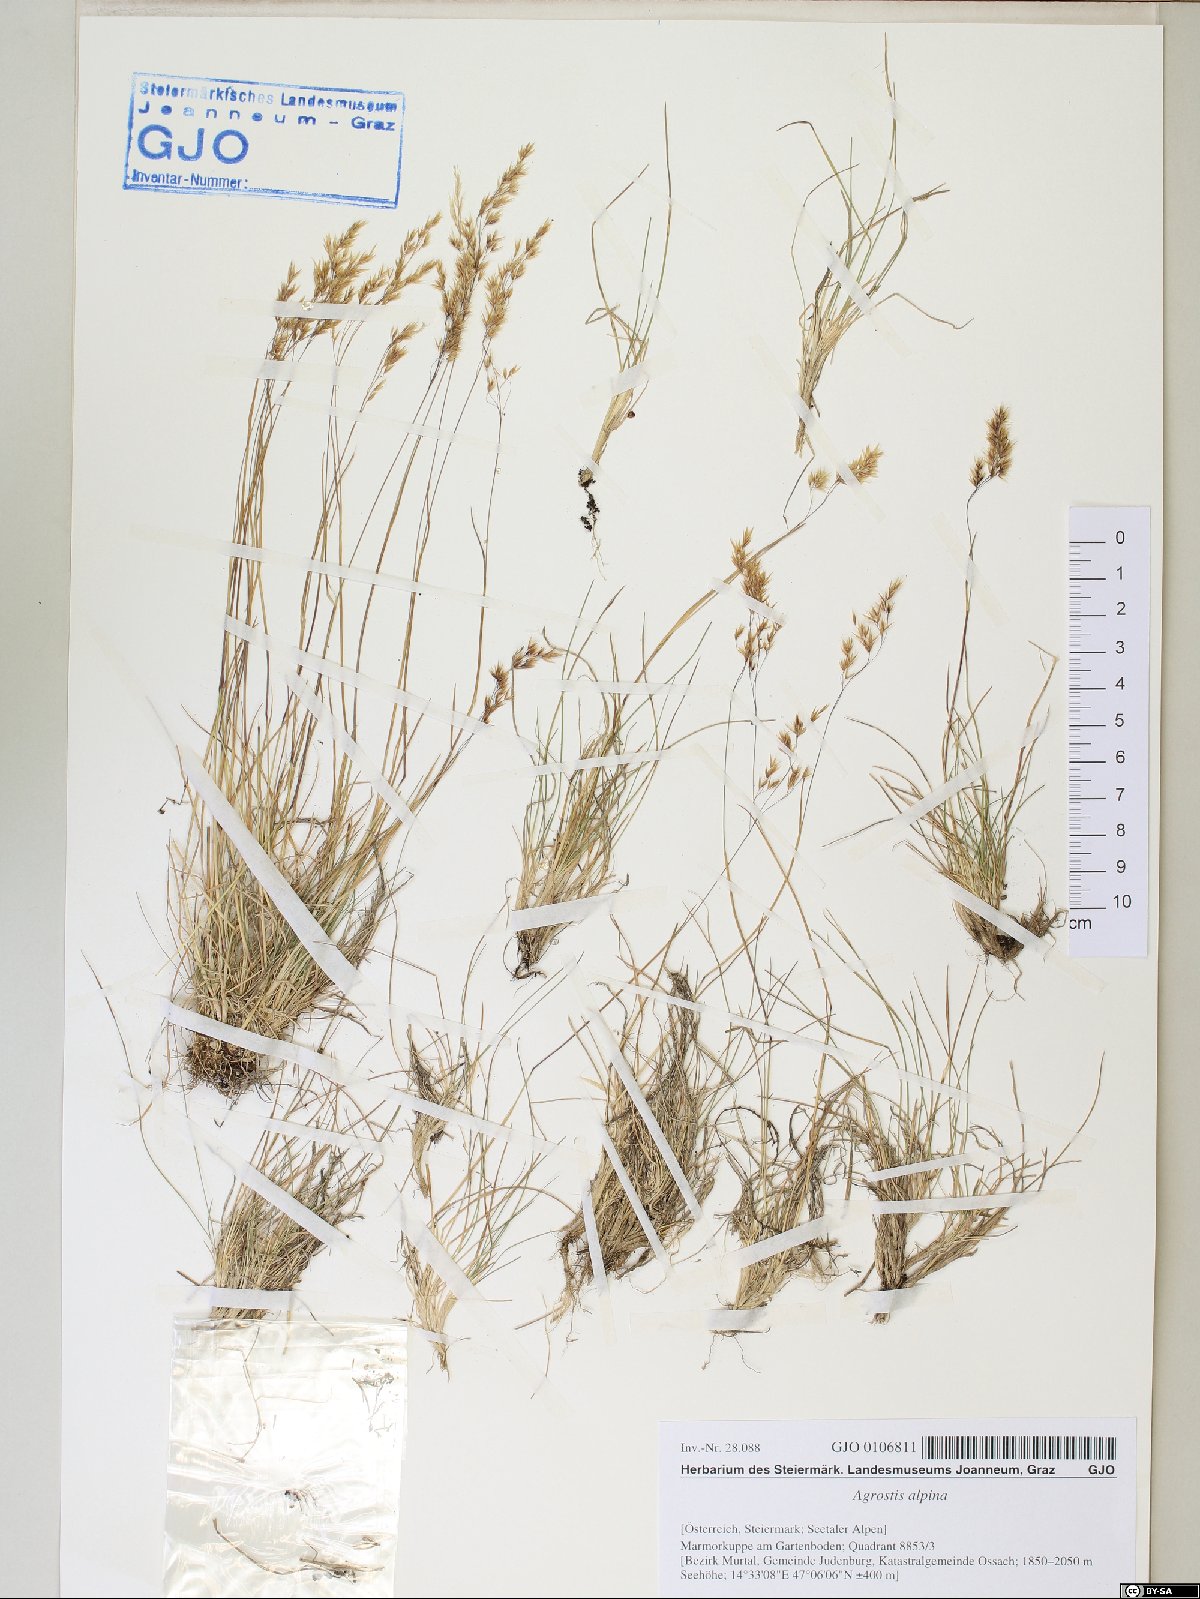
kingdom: Plantae
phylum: Tracheophyta
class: Liliopsida
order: Poales
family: Poaceae
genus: Alpagrostis
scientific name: Alpagrostis alpina
